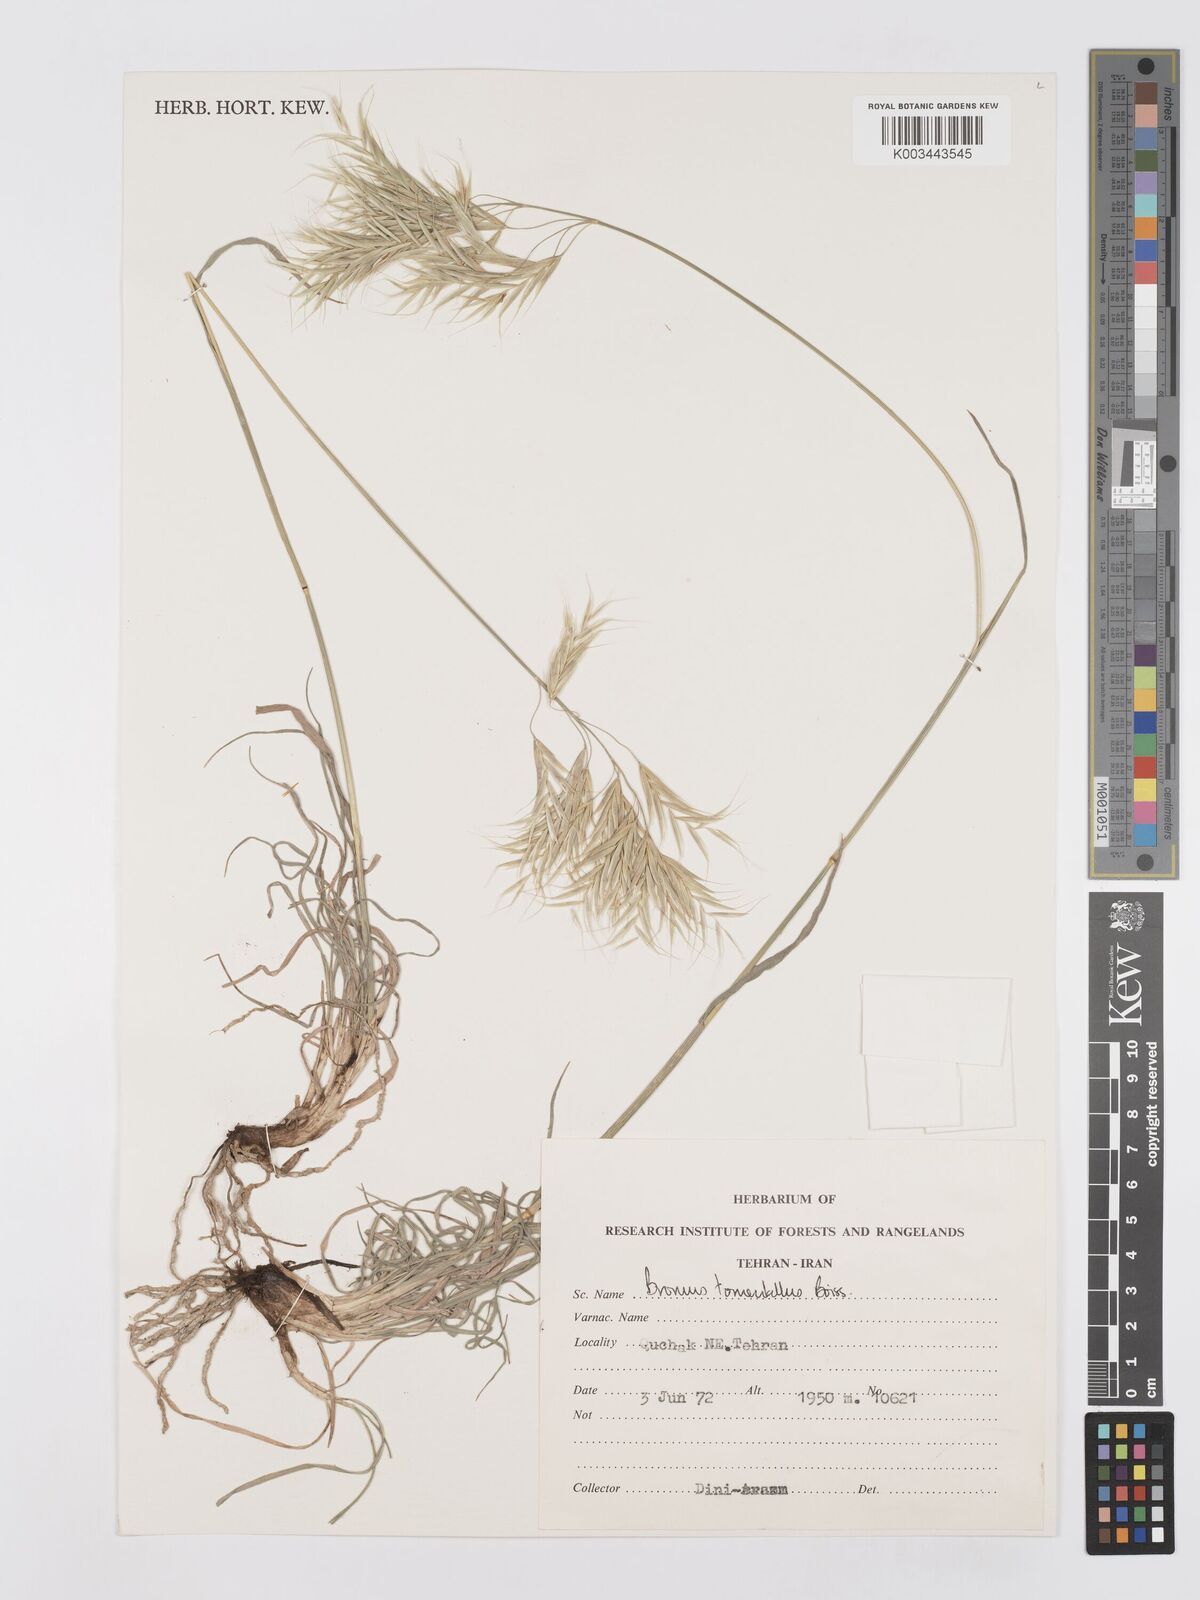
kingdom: Plantae
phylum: Tracheophyta
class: Liliopsida
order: Poales
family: Poaceae
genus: Bromus
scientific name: Bromus tomentellus
